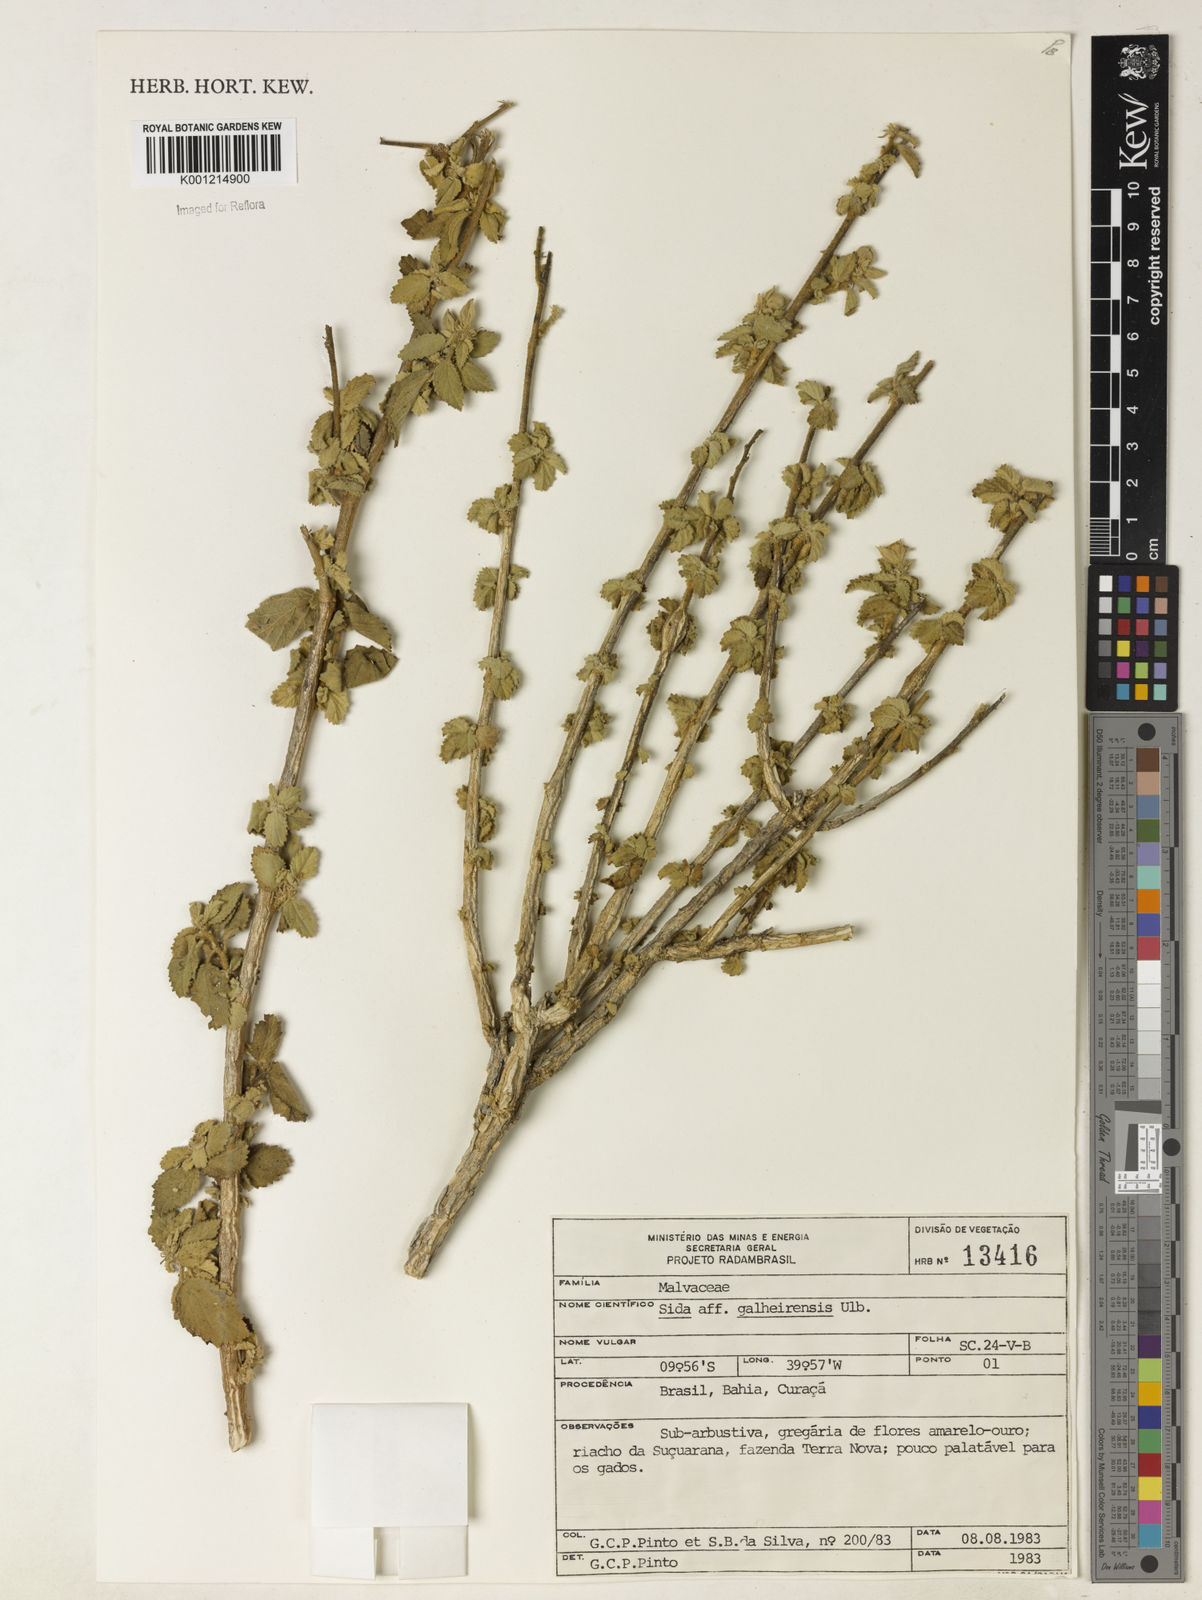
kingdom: Plantae
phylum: Tracheophyta
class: Magnoliopsida
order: Malvales
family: Malvaceae
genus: Sida
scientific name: Sida galheirensis
